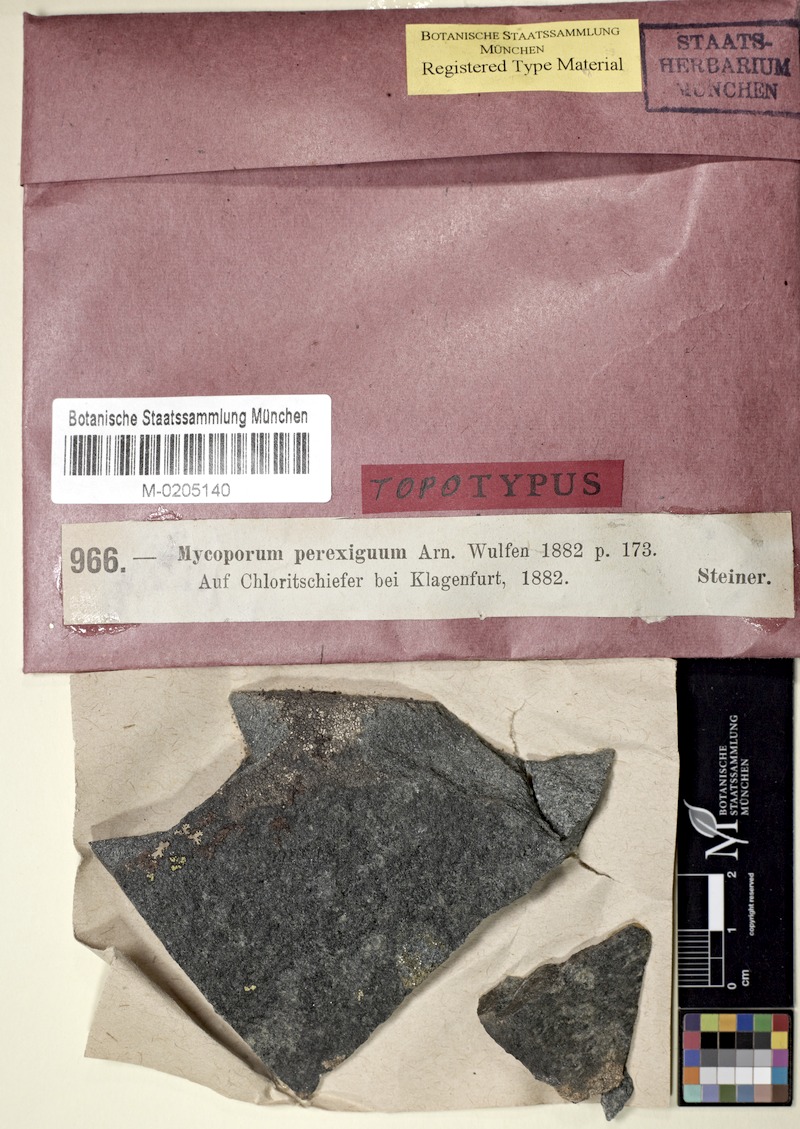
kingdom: Fungi
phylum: Ascomycota
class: Arthoniomycetes
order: Arthoniales
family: Arthoniaceae
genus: Dermatina
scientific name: Dermatina perexigua
